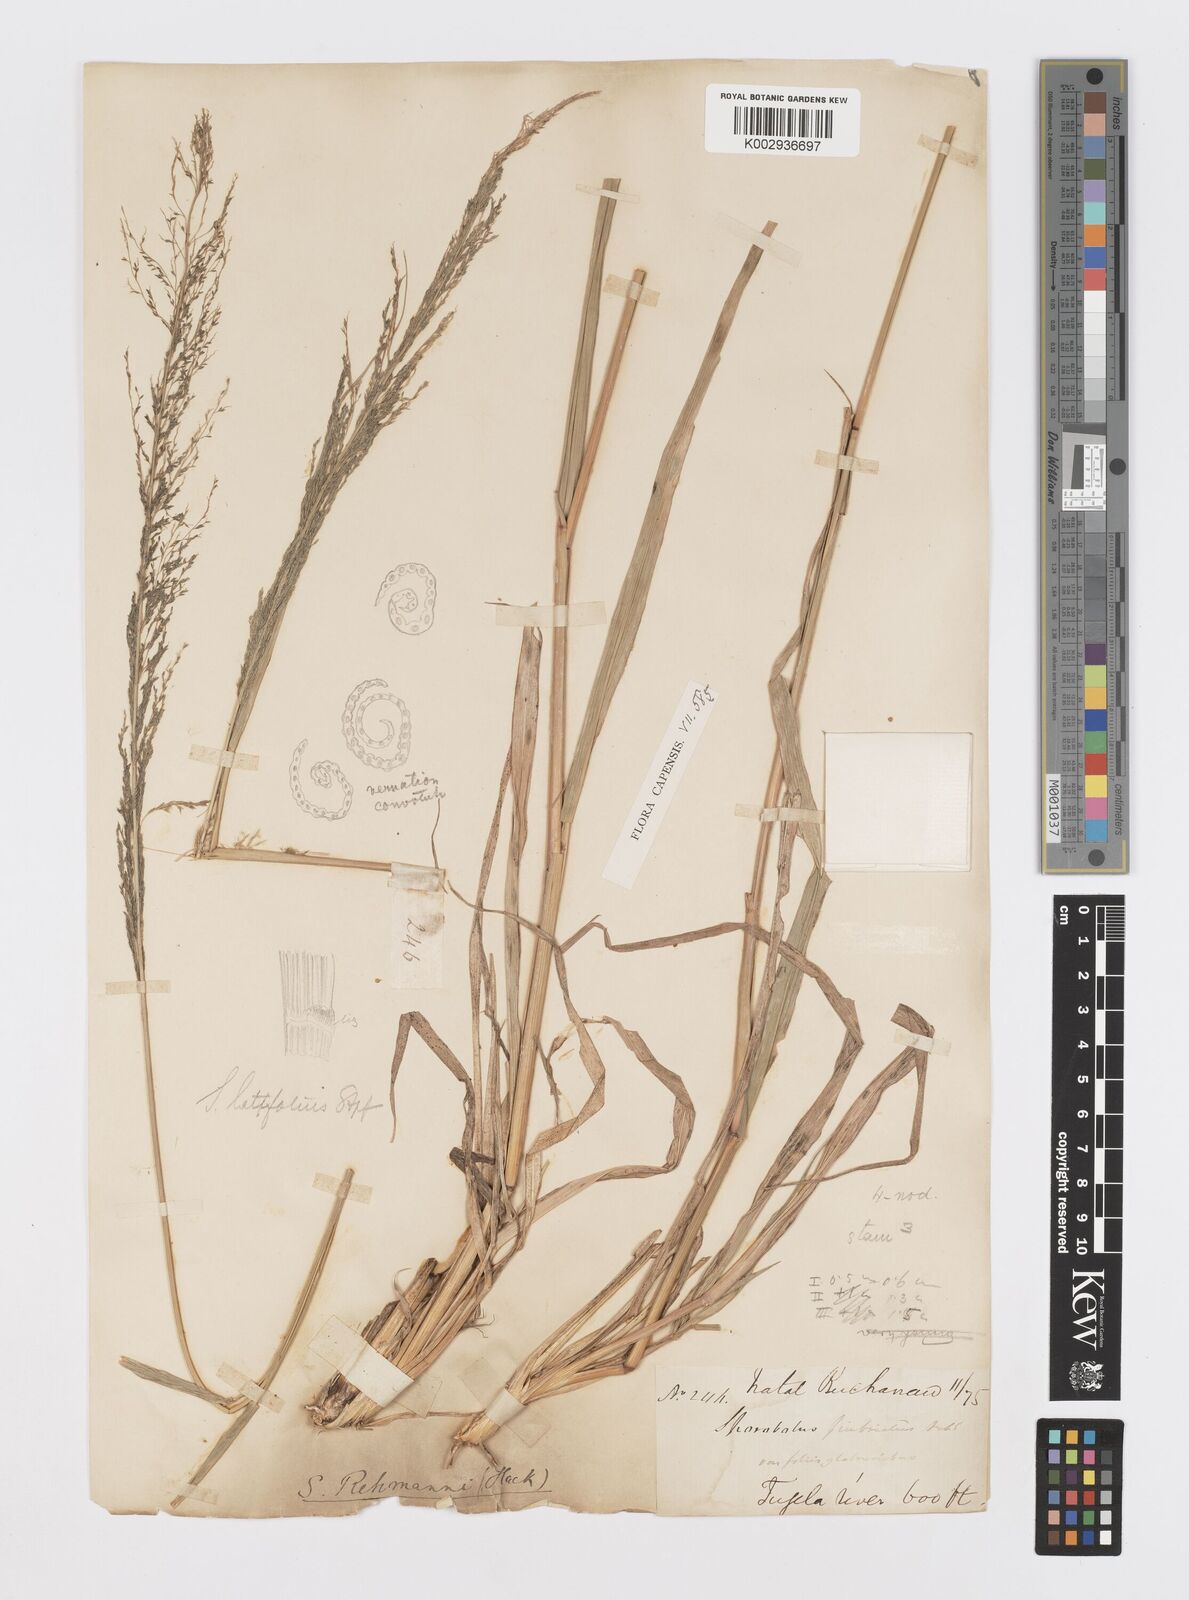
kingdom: Plantae
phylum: Tracheophyta
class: Liliopsida
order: Poales
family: Poaceae
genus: Sporobolus
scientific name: Sporobolus fimbriatus
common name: Fringed dropseed
